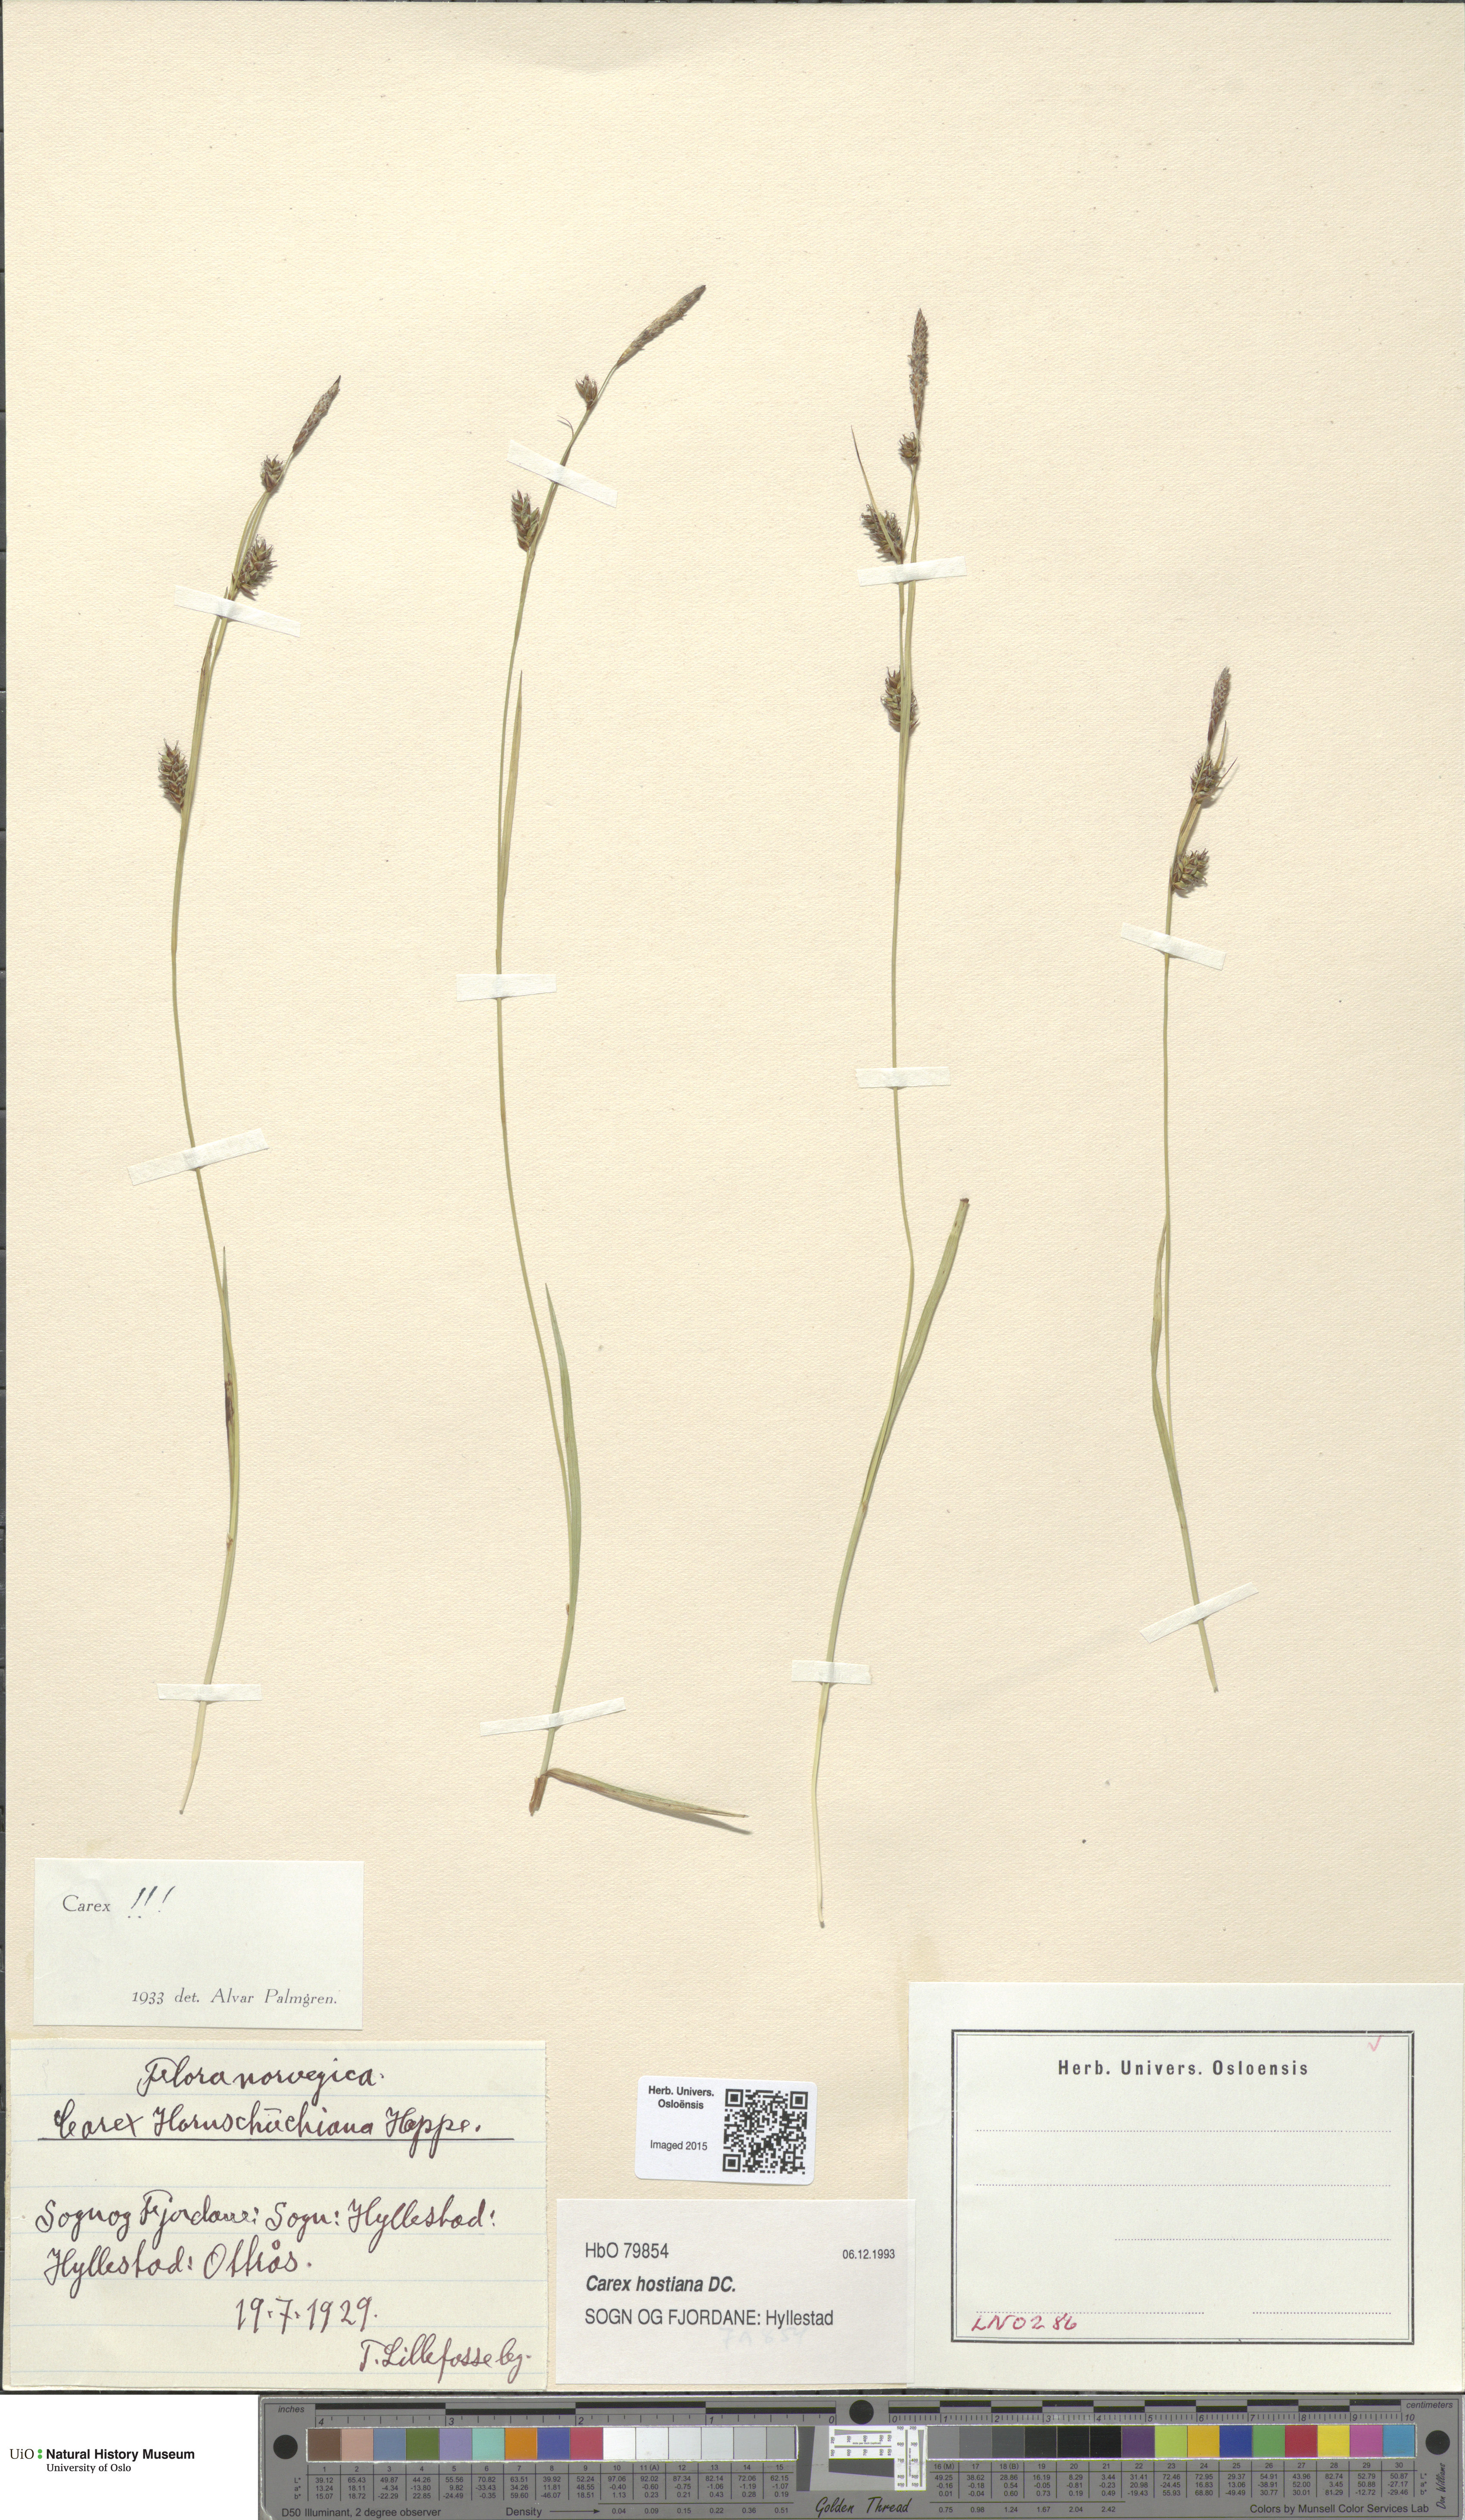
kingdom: Plantae
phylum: Tracheophyta
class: Liliopsida
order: Poales
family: Cyperaceae
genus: Carex
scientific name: Carex hostiana
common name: Tawny sedge
